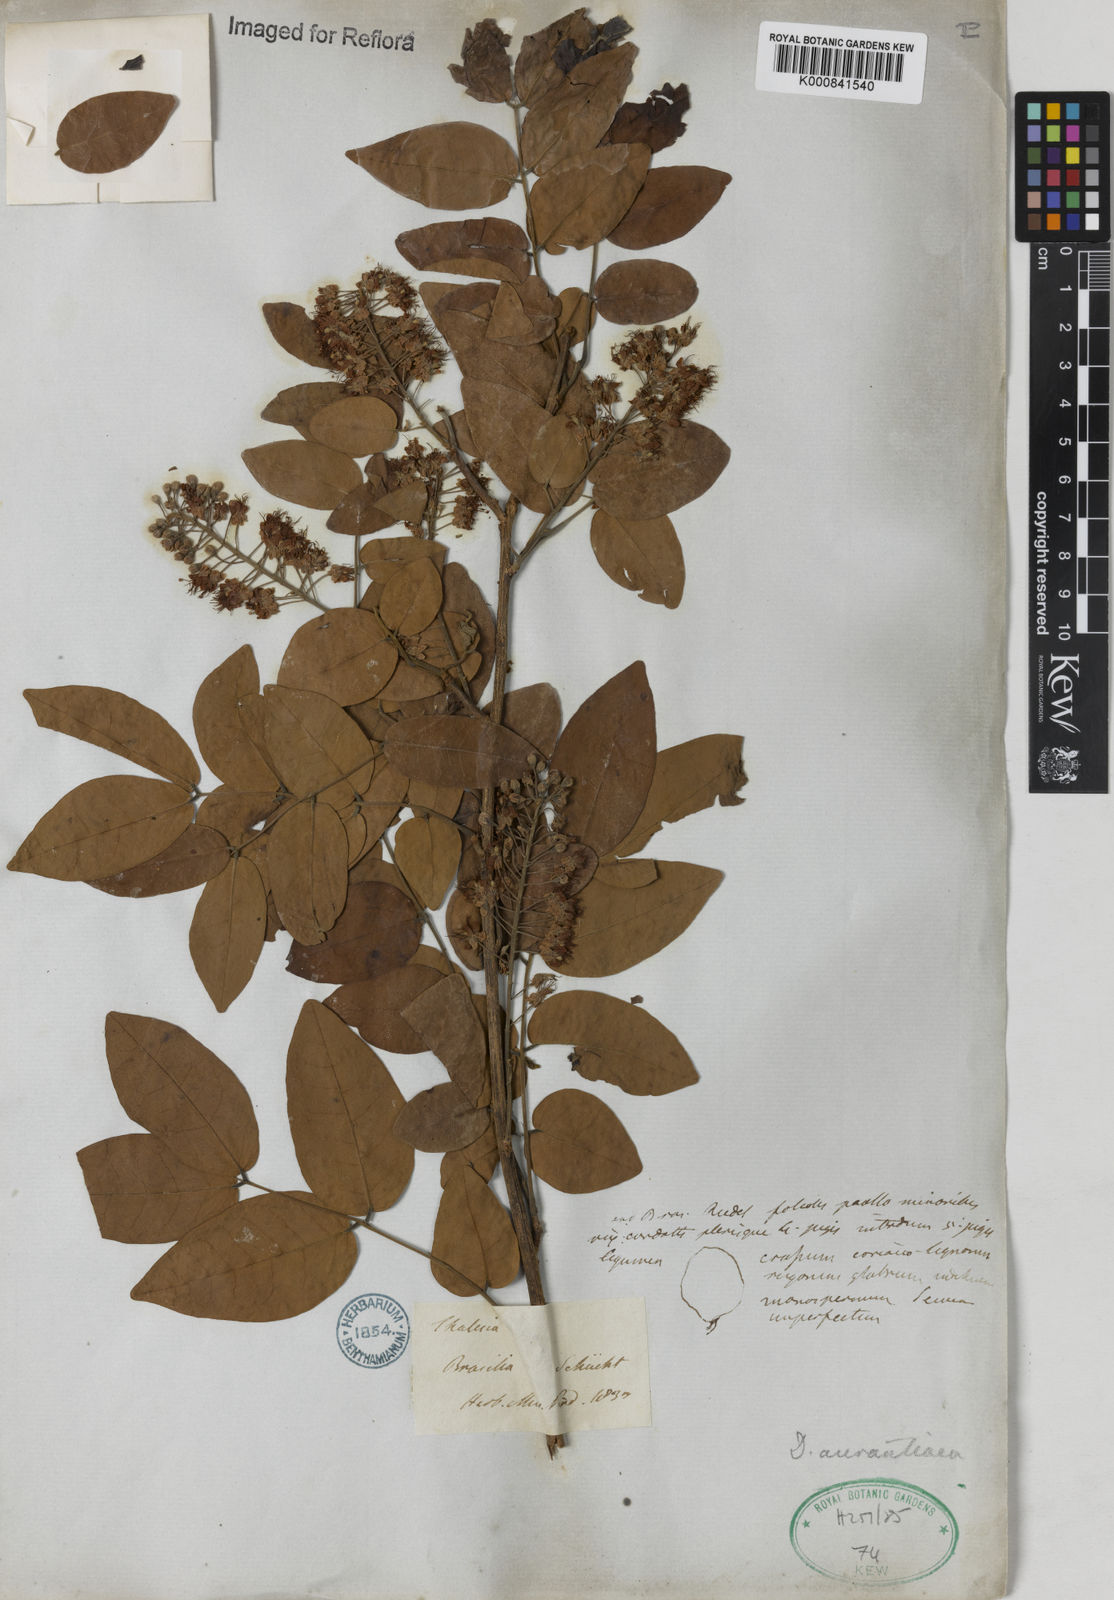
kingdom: Plantae
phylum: Tracheophyta
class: Magnoliopsida
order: Fabales
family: Fabaceae
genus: Diptychandra
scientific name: Diptychandra aurantiaca
